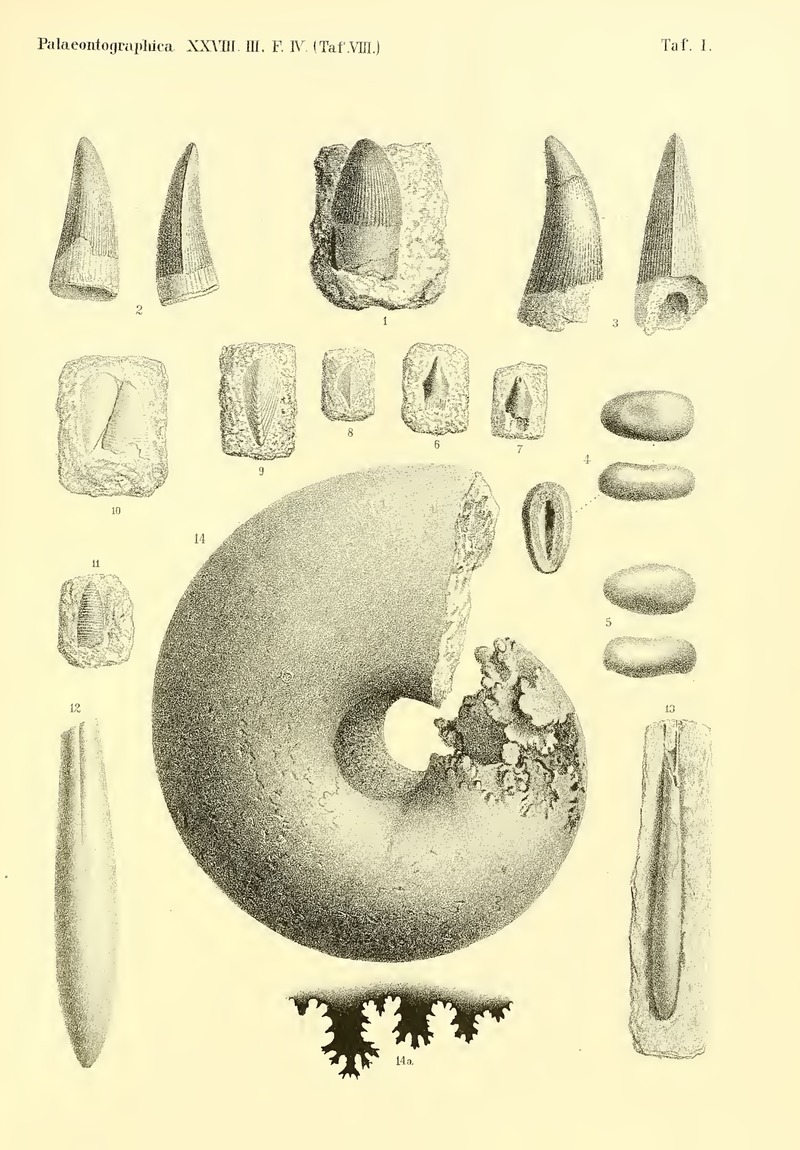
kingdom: Animalia
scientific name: Animalia
